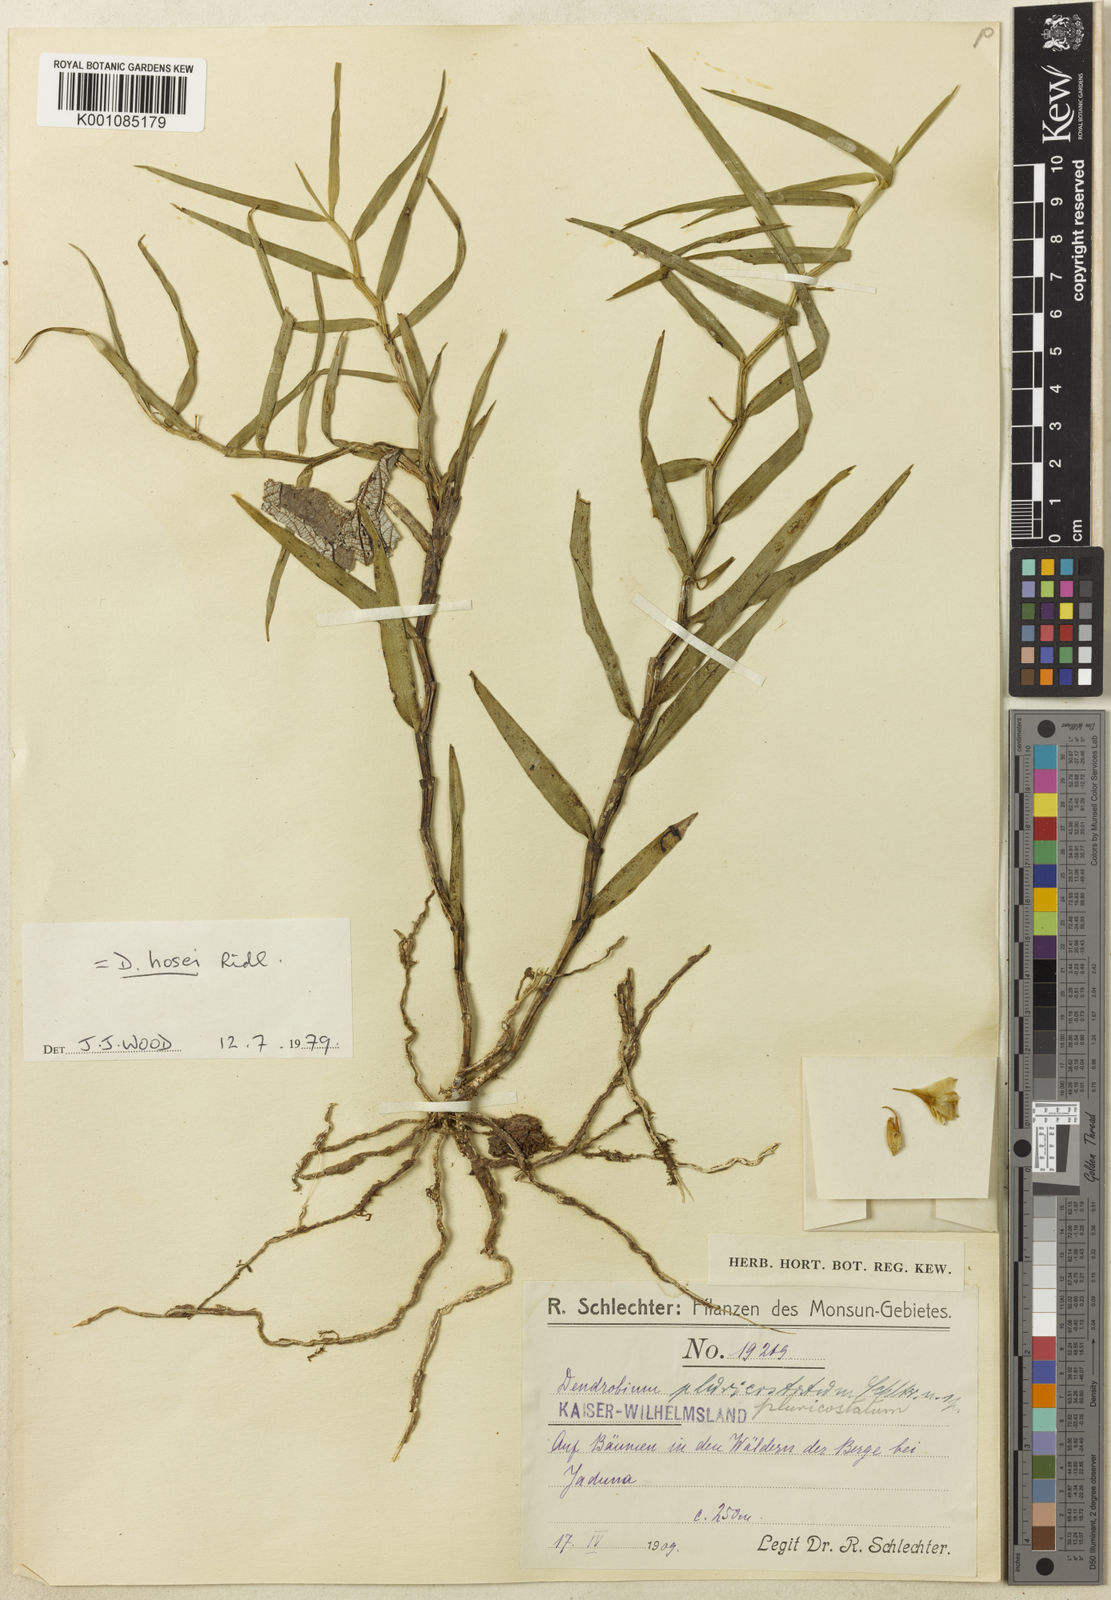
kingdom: Plantae
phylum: Tracheophyta
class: Liliopsida
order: Asparagales
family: Orchidaceae
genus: Dendrobium
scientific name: Dendrobium hosei
